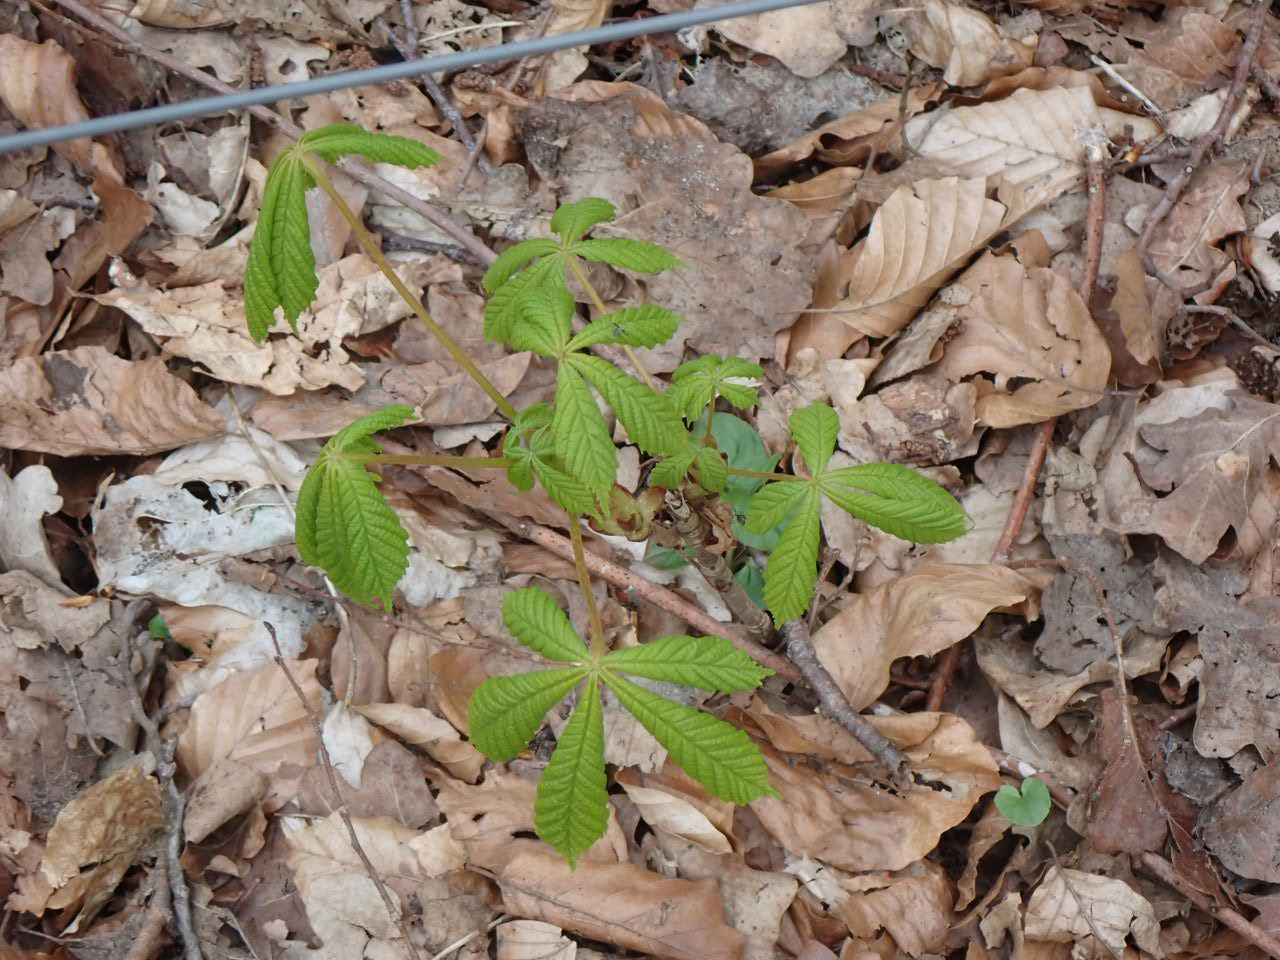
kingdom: Plantae
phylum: Tracheophyta
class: Magnoliopsida
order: Sapindales
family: Sapindaceae
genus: Aesculus
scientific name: Aesculus hippocastanum
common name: Hestekastanie
